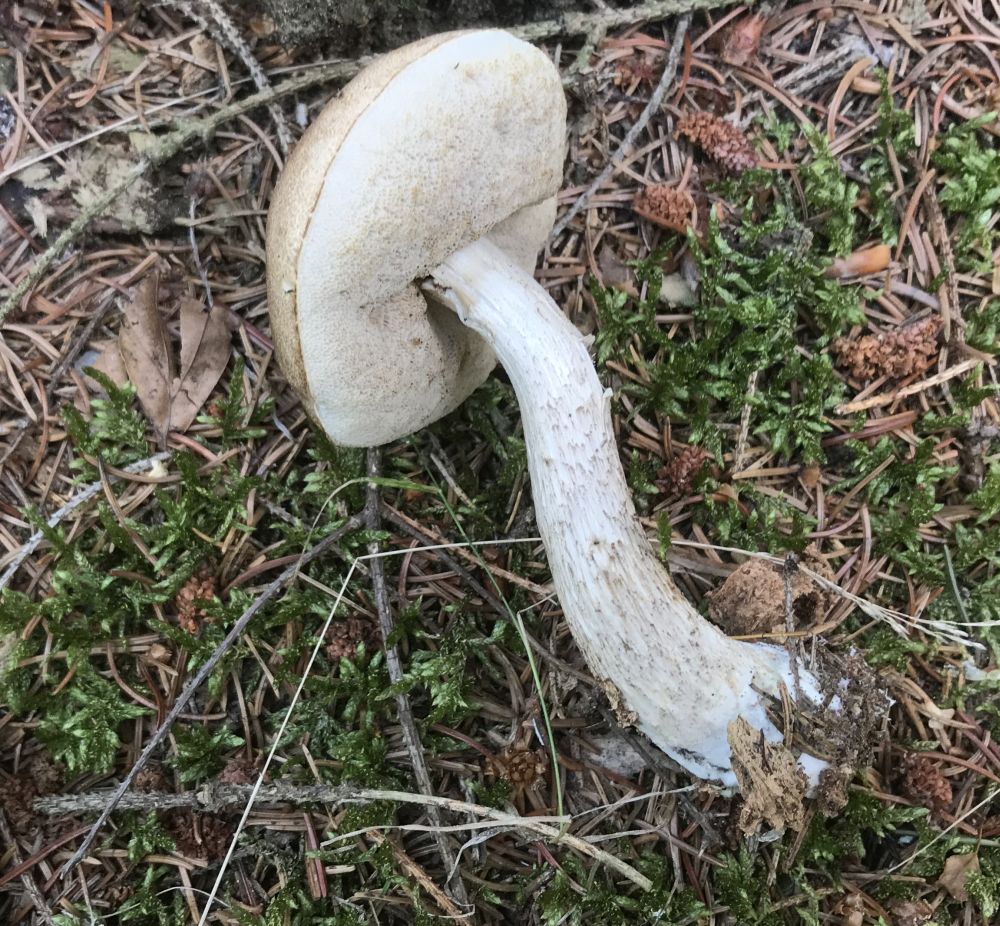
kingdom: Fungi
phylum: Basidiomycota
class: Agaricomycetes
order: Boletales
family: Boletaceae
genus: Leccinum
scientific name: Leccinum cyaneobasileucum
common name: almindelig skælrørhat
